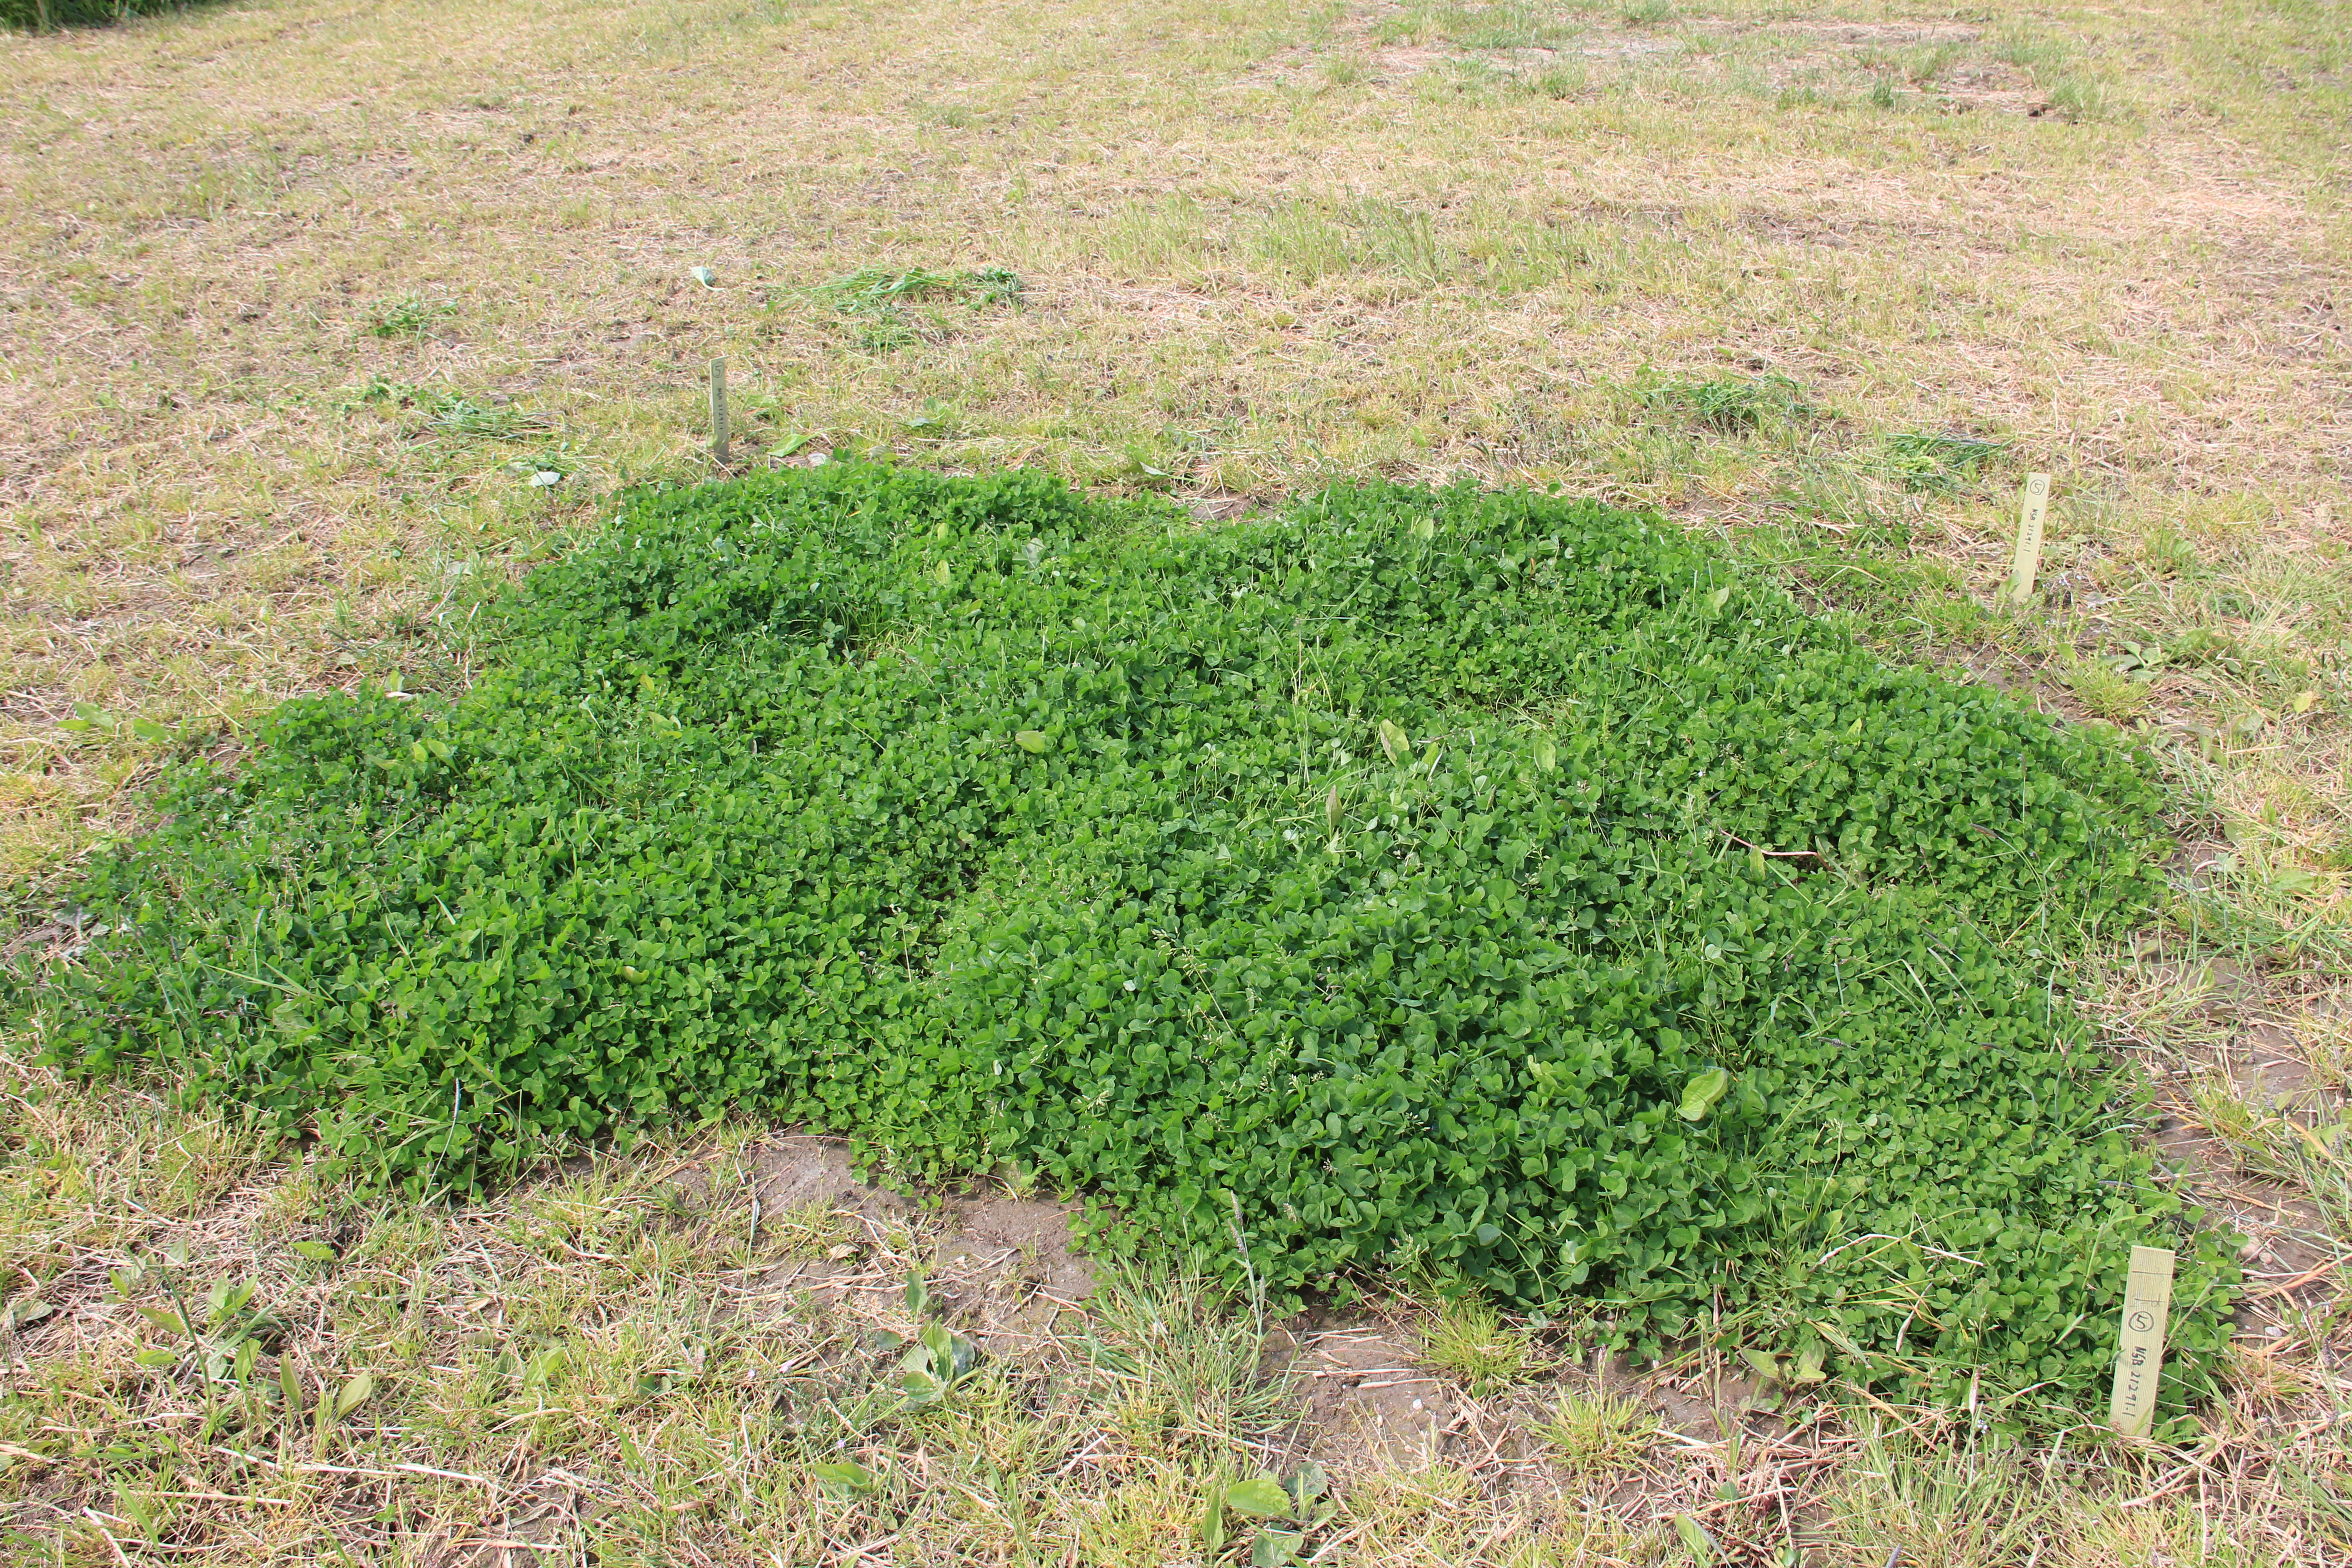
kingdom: Plantae
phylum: Tracheophyta
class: Magnoliopsida
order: Fabales
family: Fabaceae
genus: Trifolium
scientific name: Trifolium repens
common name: White clover
